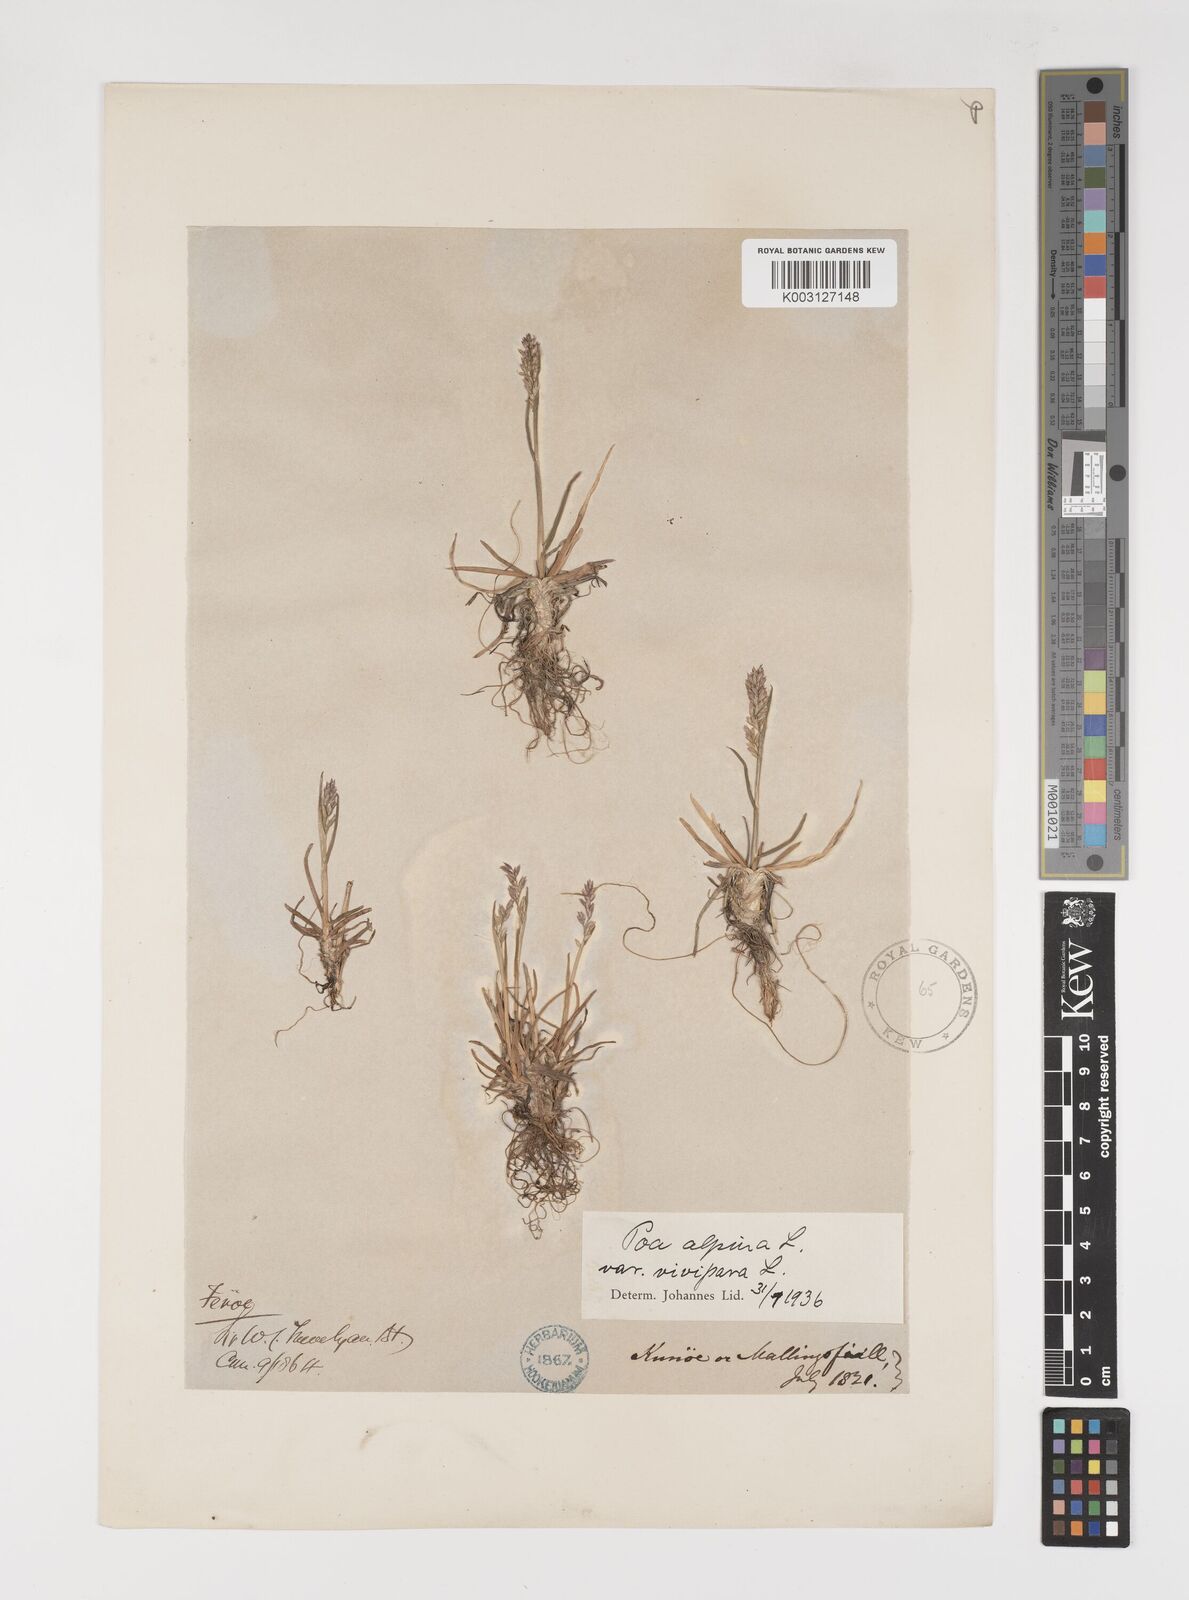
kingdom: Plantae
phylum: Tracheophyta
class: Liliopsida
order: Poales
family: Poaceae
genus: Poa
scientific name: Poa alpina
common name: Alpine bluegrass
